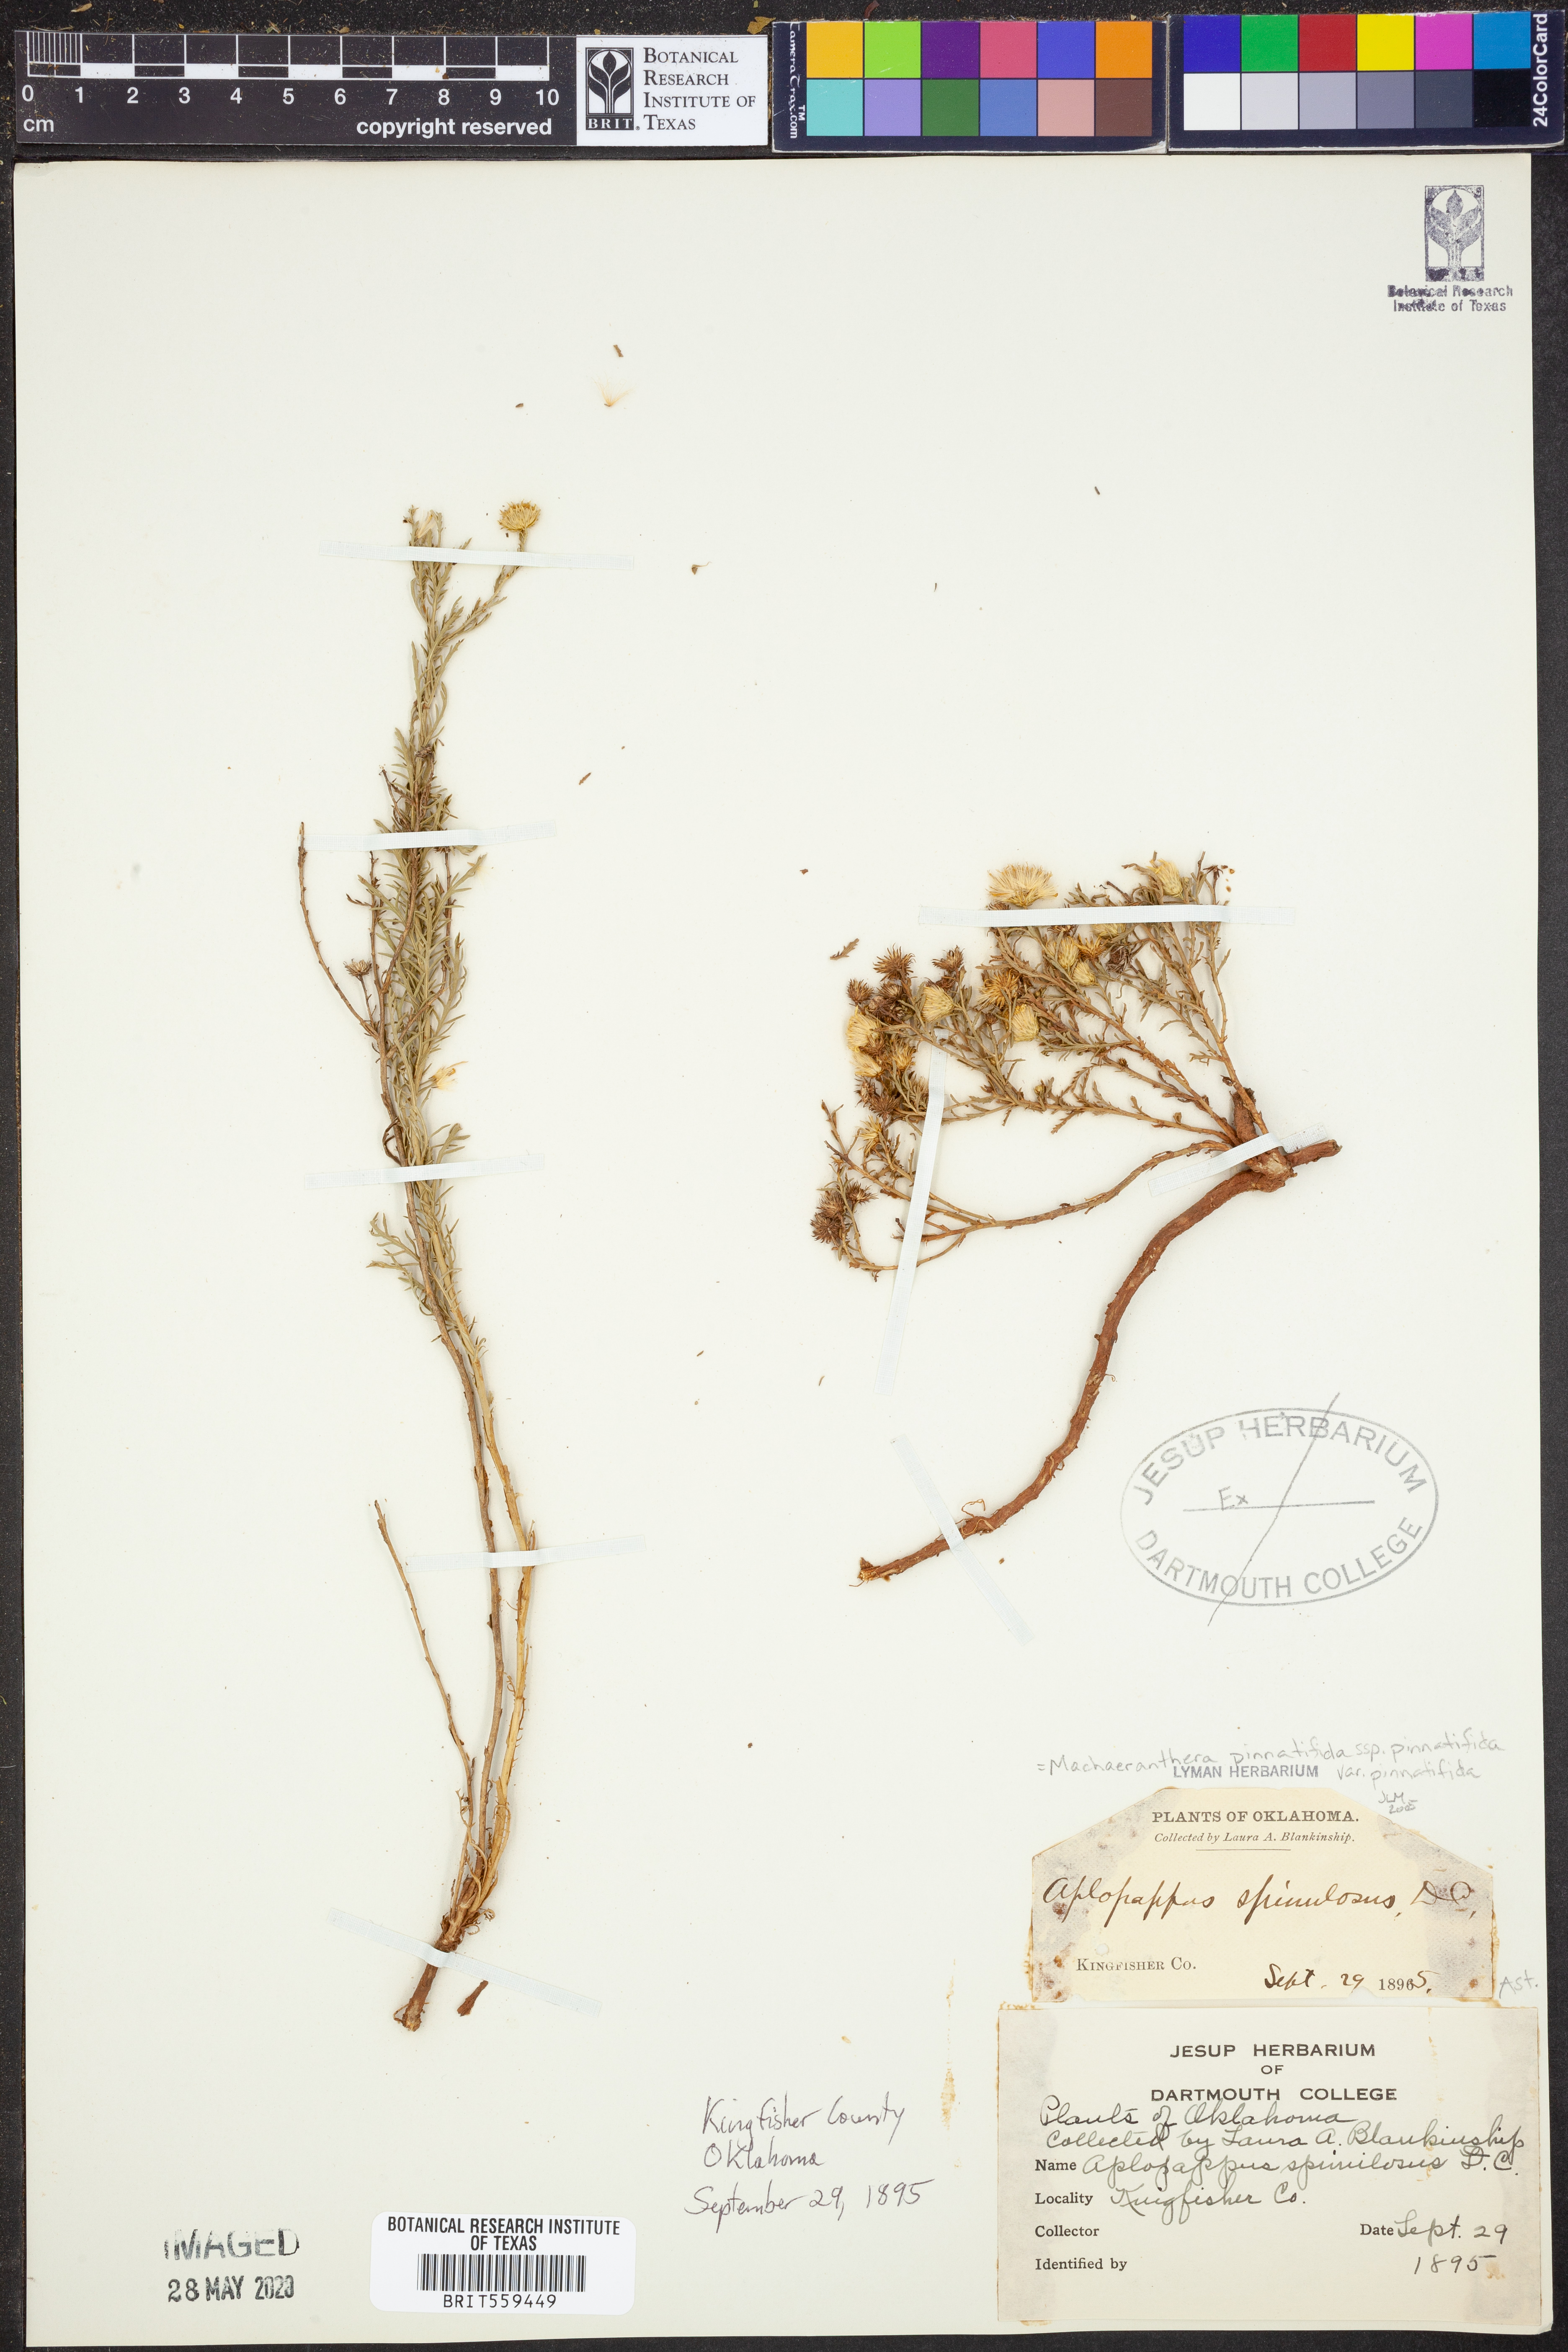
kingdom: Plantae
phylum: Tracheophyta
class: Magnoliopsida
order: Asterales
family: Asteraceae
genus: Xanthisma
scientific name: Xanthisma spinulosum
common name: Spiny goldenweed
